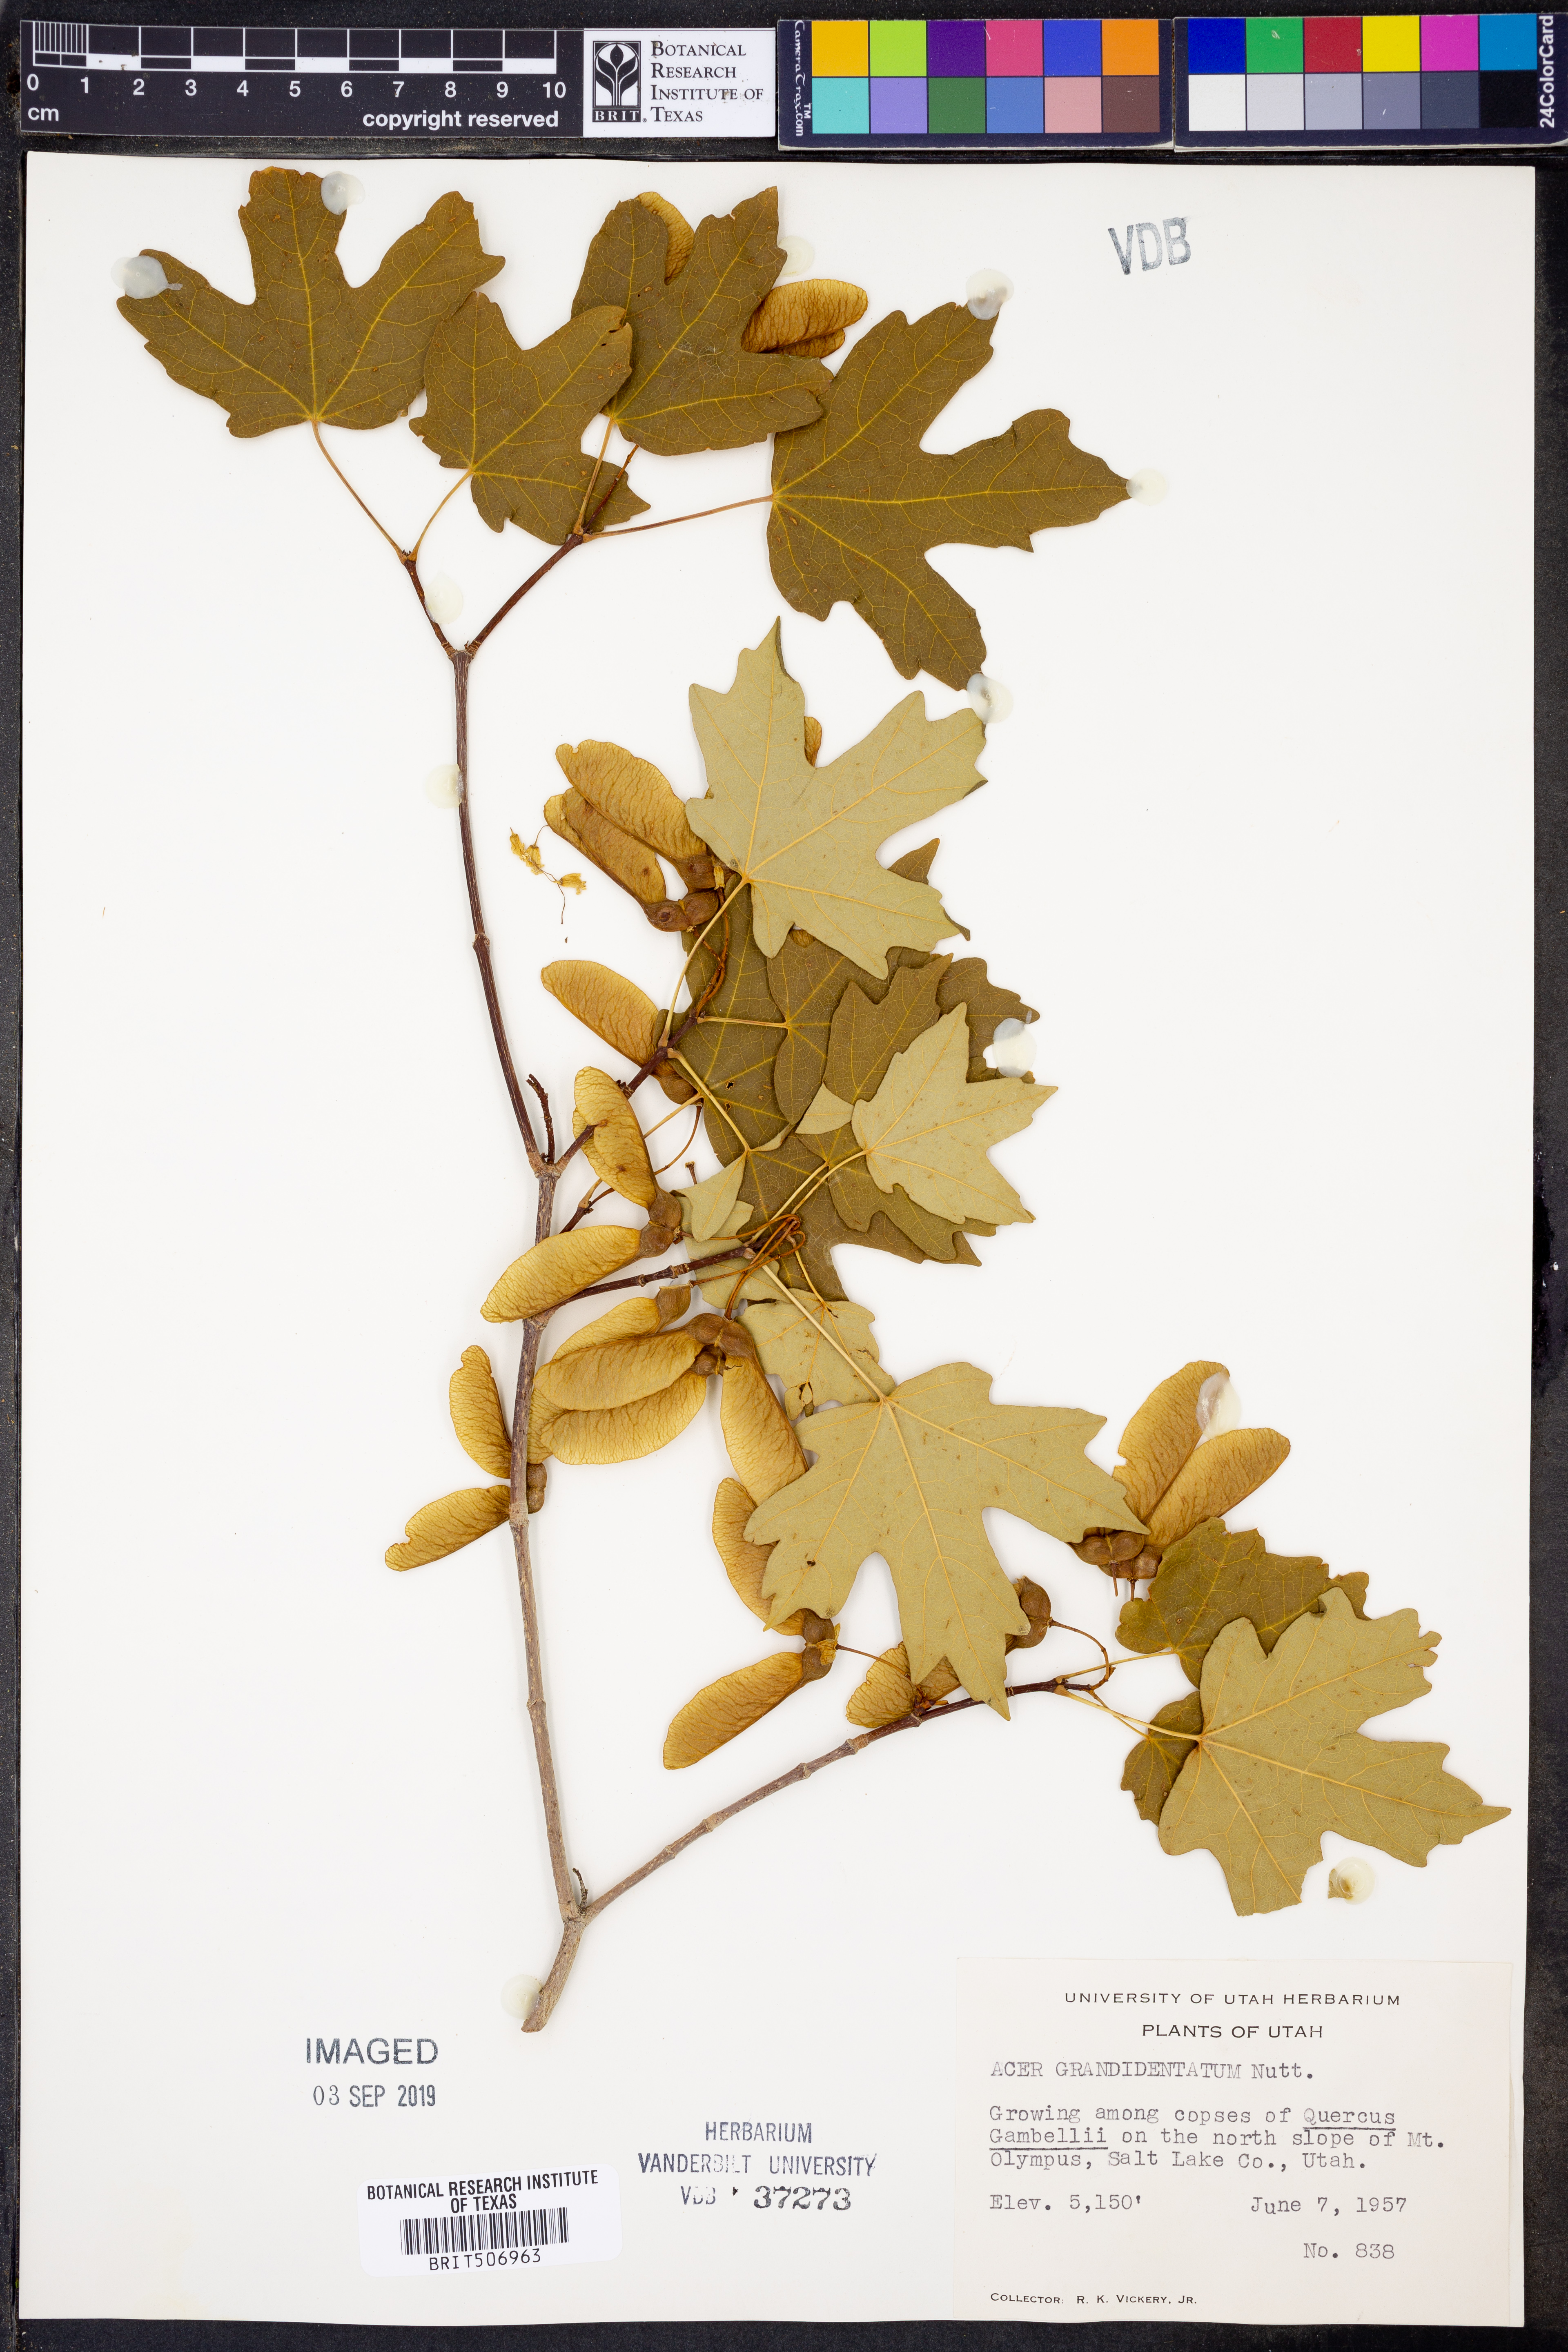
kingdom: Plantae
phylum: Tracheophyta
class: Magnoliopsida
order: Sapindales
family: Sapindaceae
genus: Acer
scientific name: Acer grandidentatum
